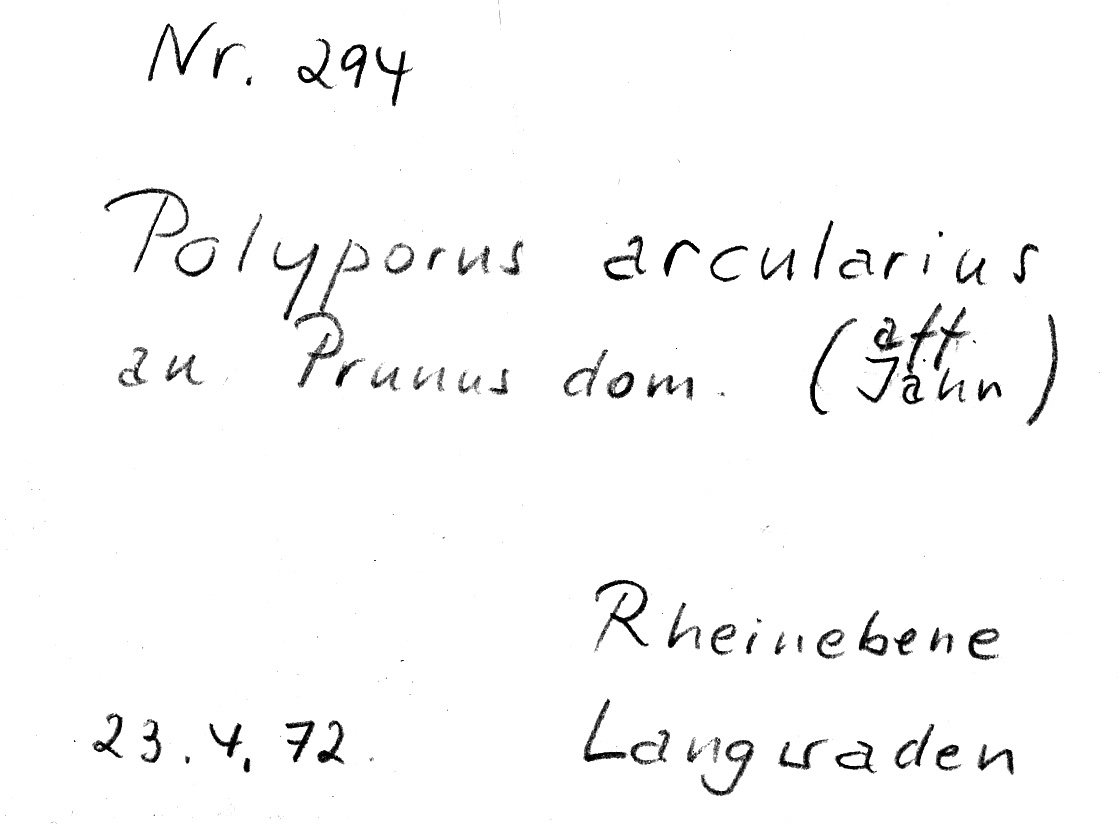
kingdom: Fungi
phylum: Basidiomycota
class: Agaricomycetes
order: Polyporales
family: Polyporaceae
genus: Lentinus
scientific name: Lentinus arcularius
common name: Spring polypore
